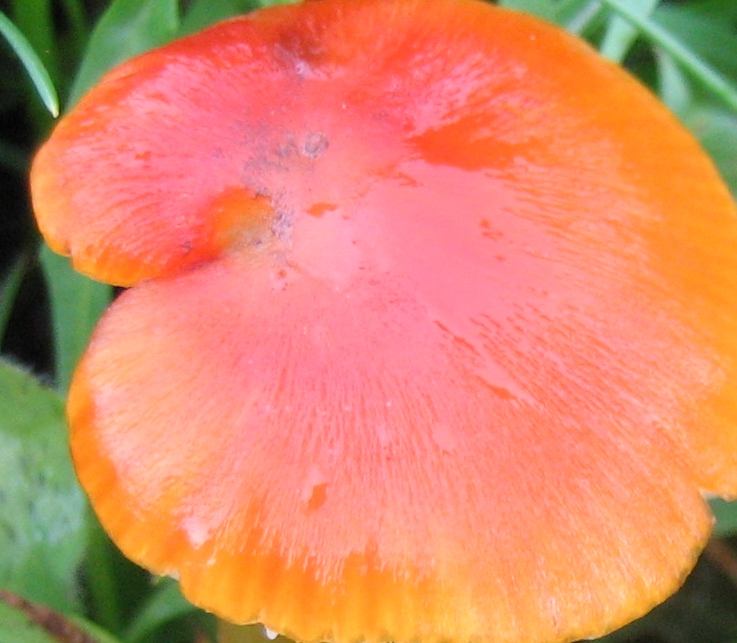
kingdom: Fungi
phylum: Basidiomycota
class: Agaricomycetes
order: Agaricales
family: Hygrophoraceae
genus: Hygrocybe
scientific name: Hygrocybe conica
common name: kegle-vokshat
